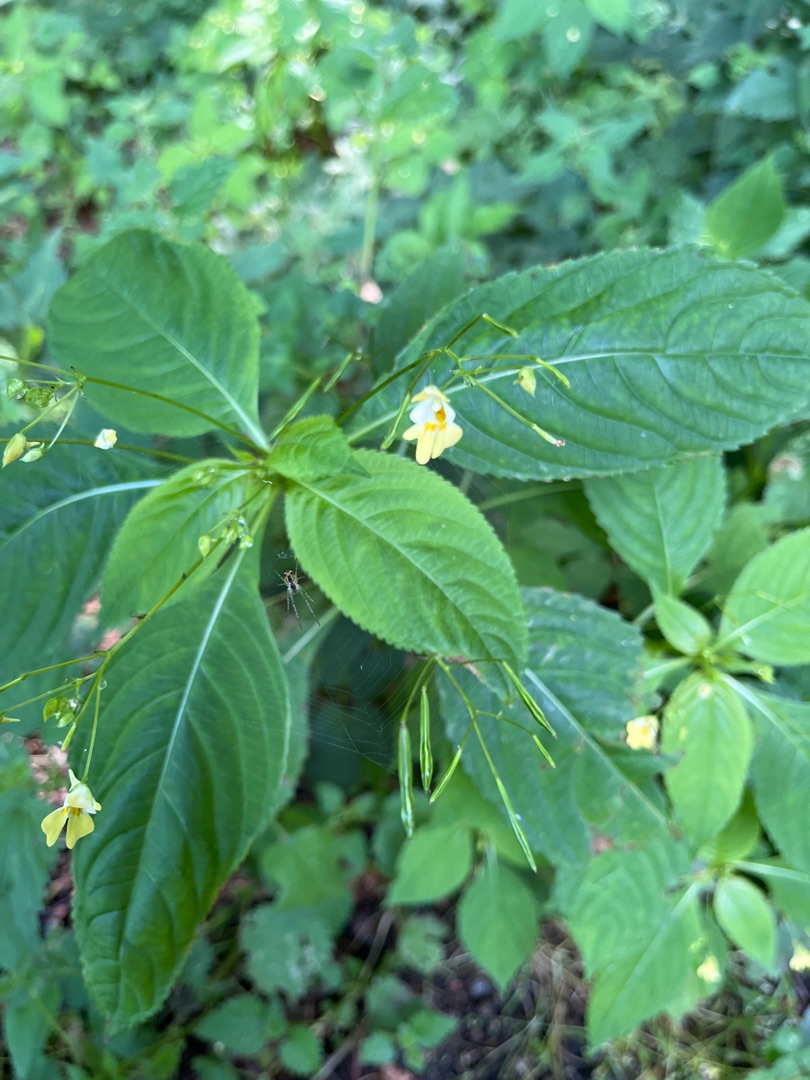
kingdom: Plantae
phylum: Tracheophyta
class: Magnoliopsida
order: Ericales
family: Balsaminaceae
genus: Impatiens
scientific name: Impatiens parviflora
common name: Småblomstret balsamin
